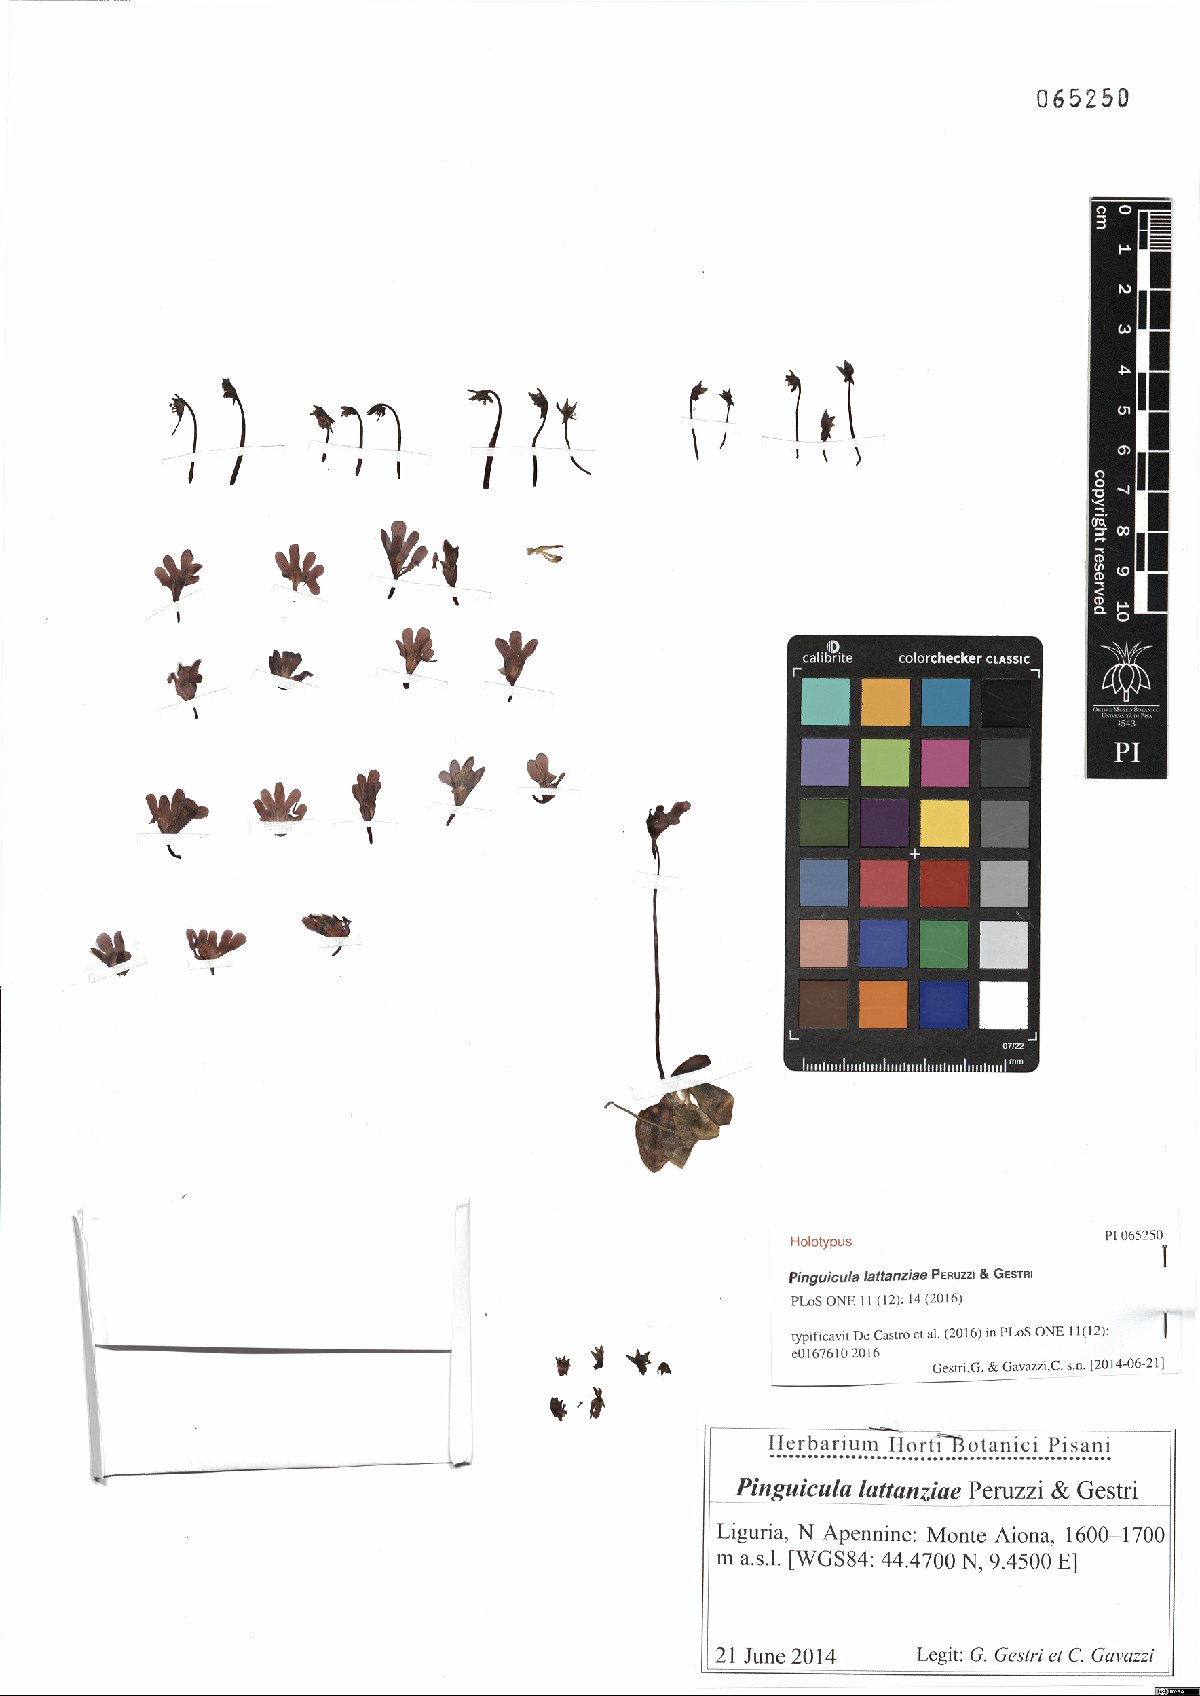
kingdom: Plantae
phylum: Tracheophyta
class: Magnoliopsida
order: Lamiales
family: Lentibulariaceae
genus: Pinguicula
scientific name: Pinguicula lattanziae
